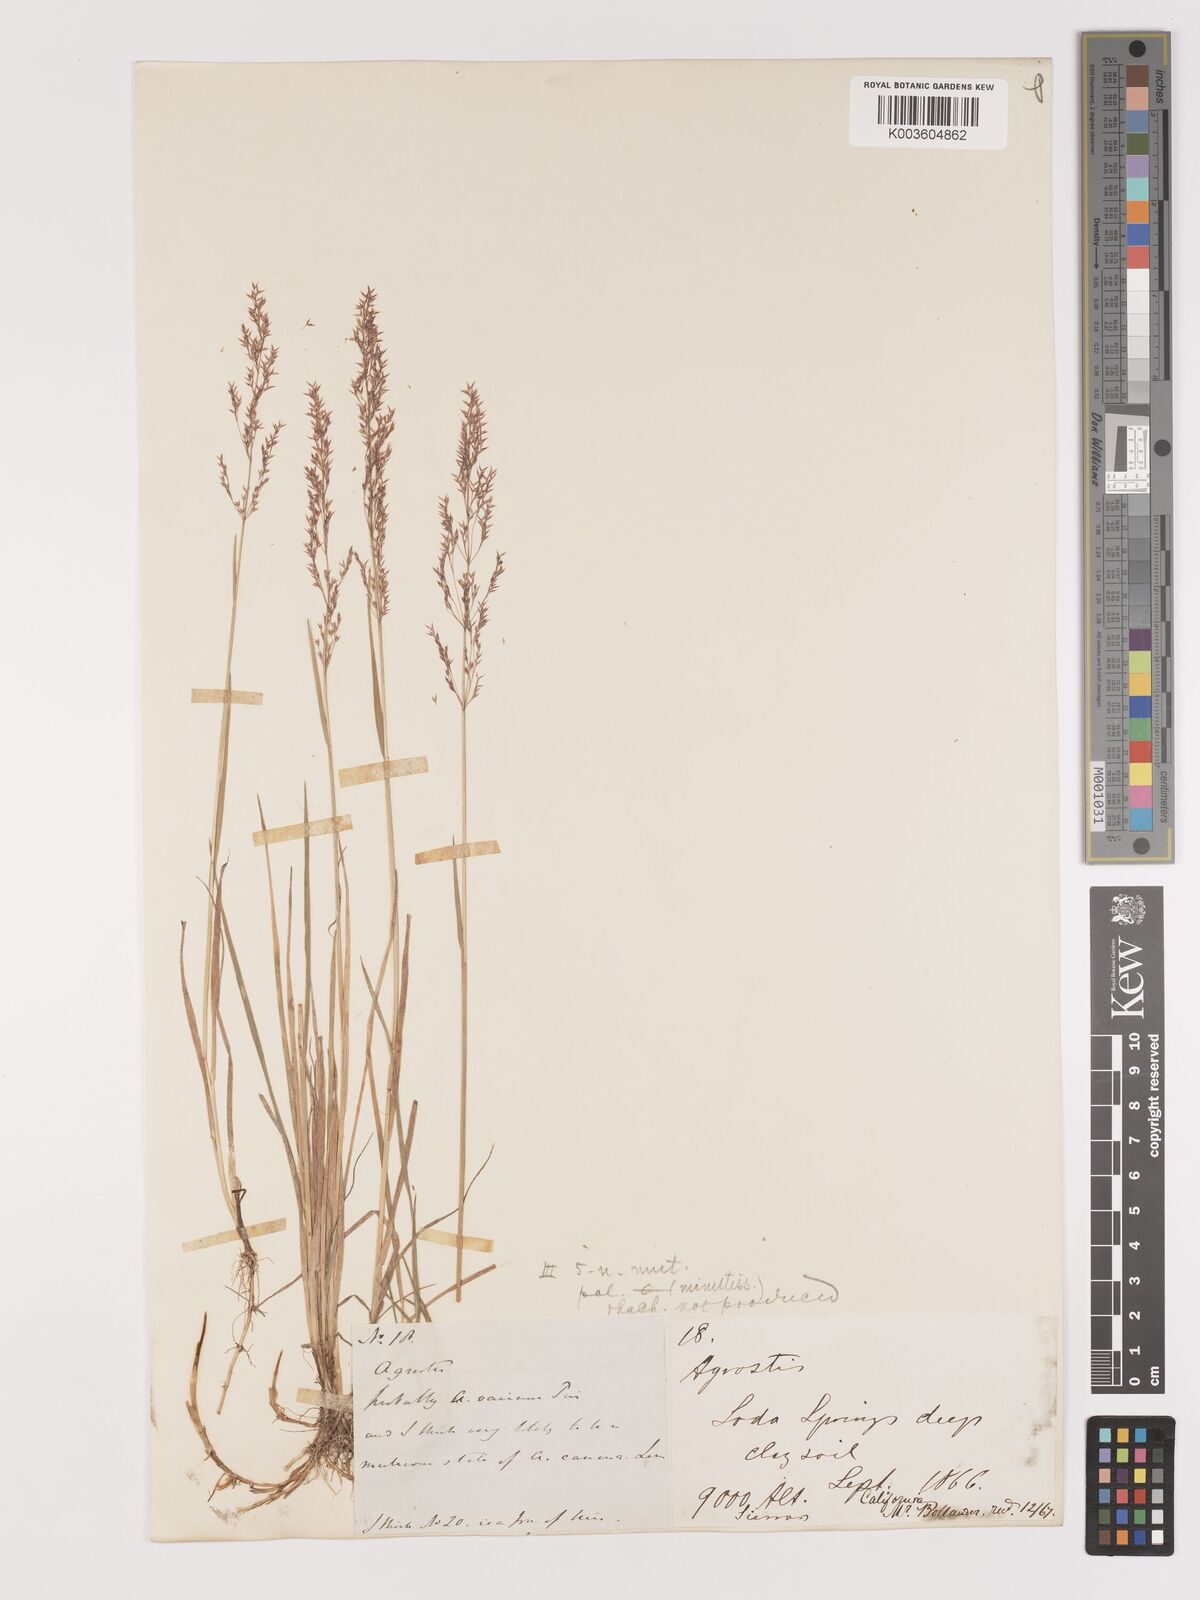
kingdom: Plantae
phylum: Tracheophyta
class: Liliopsida
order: Poales
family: Poaceae
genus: Agrostis
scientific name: Agrostis
